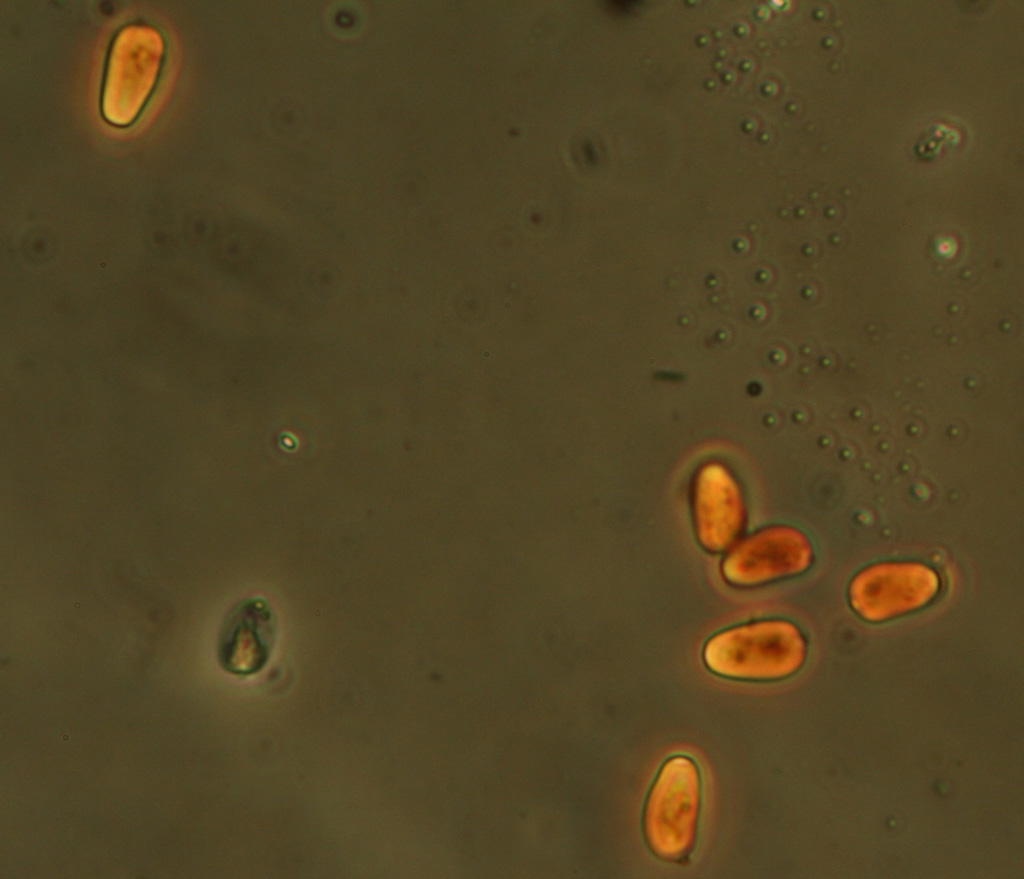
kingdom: Fungi
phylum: Basidiomycota
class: Agaricomycetes
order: Agaricales
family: Psathyrellaceae
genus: Psathyrella
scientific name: Psathyrella spadiceogrisea
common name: gråbrun mørkhat
